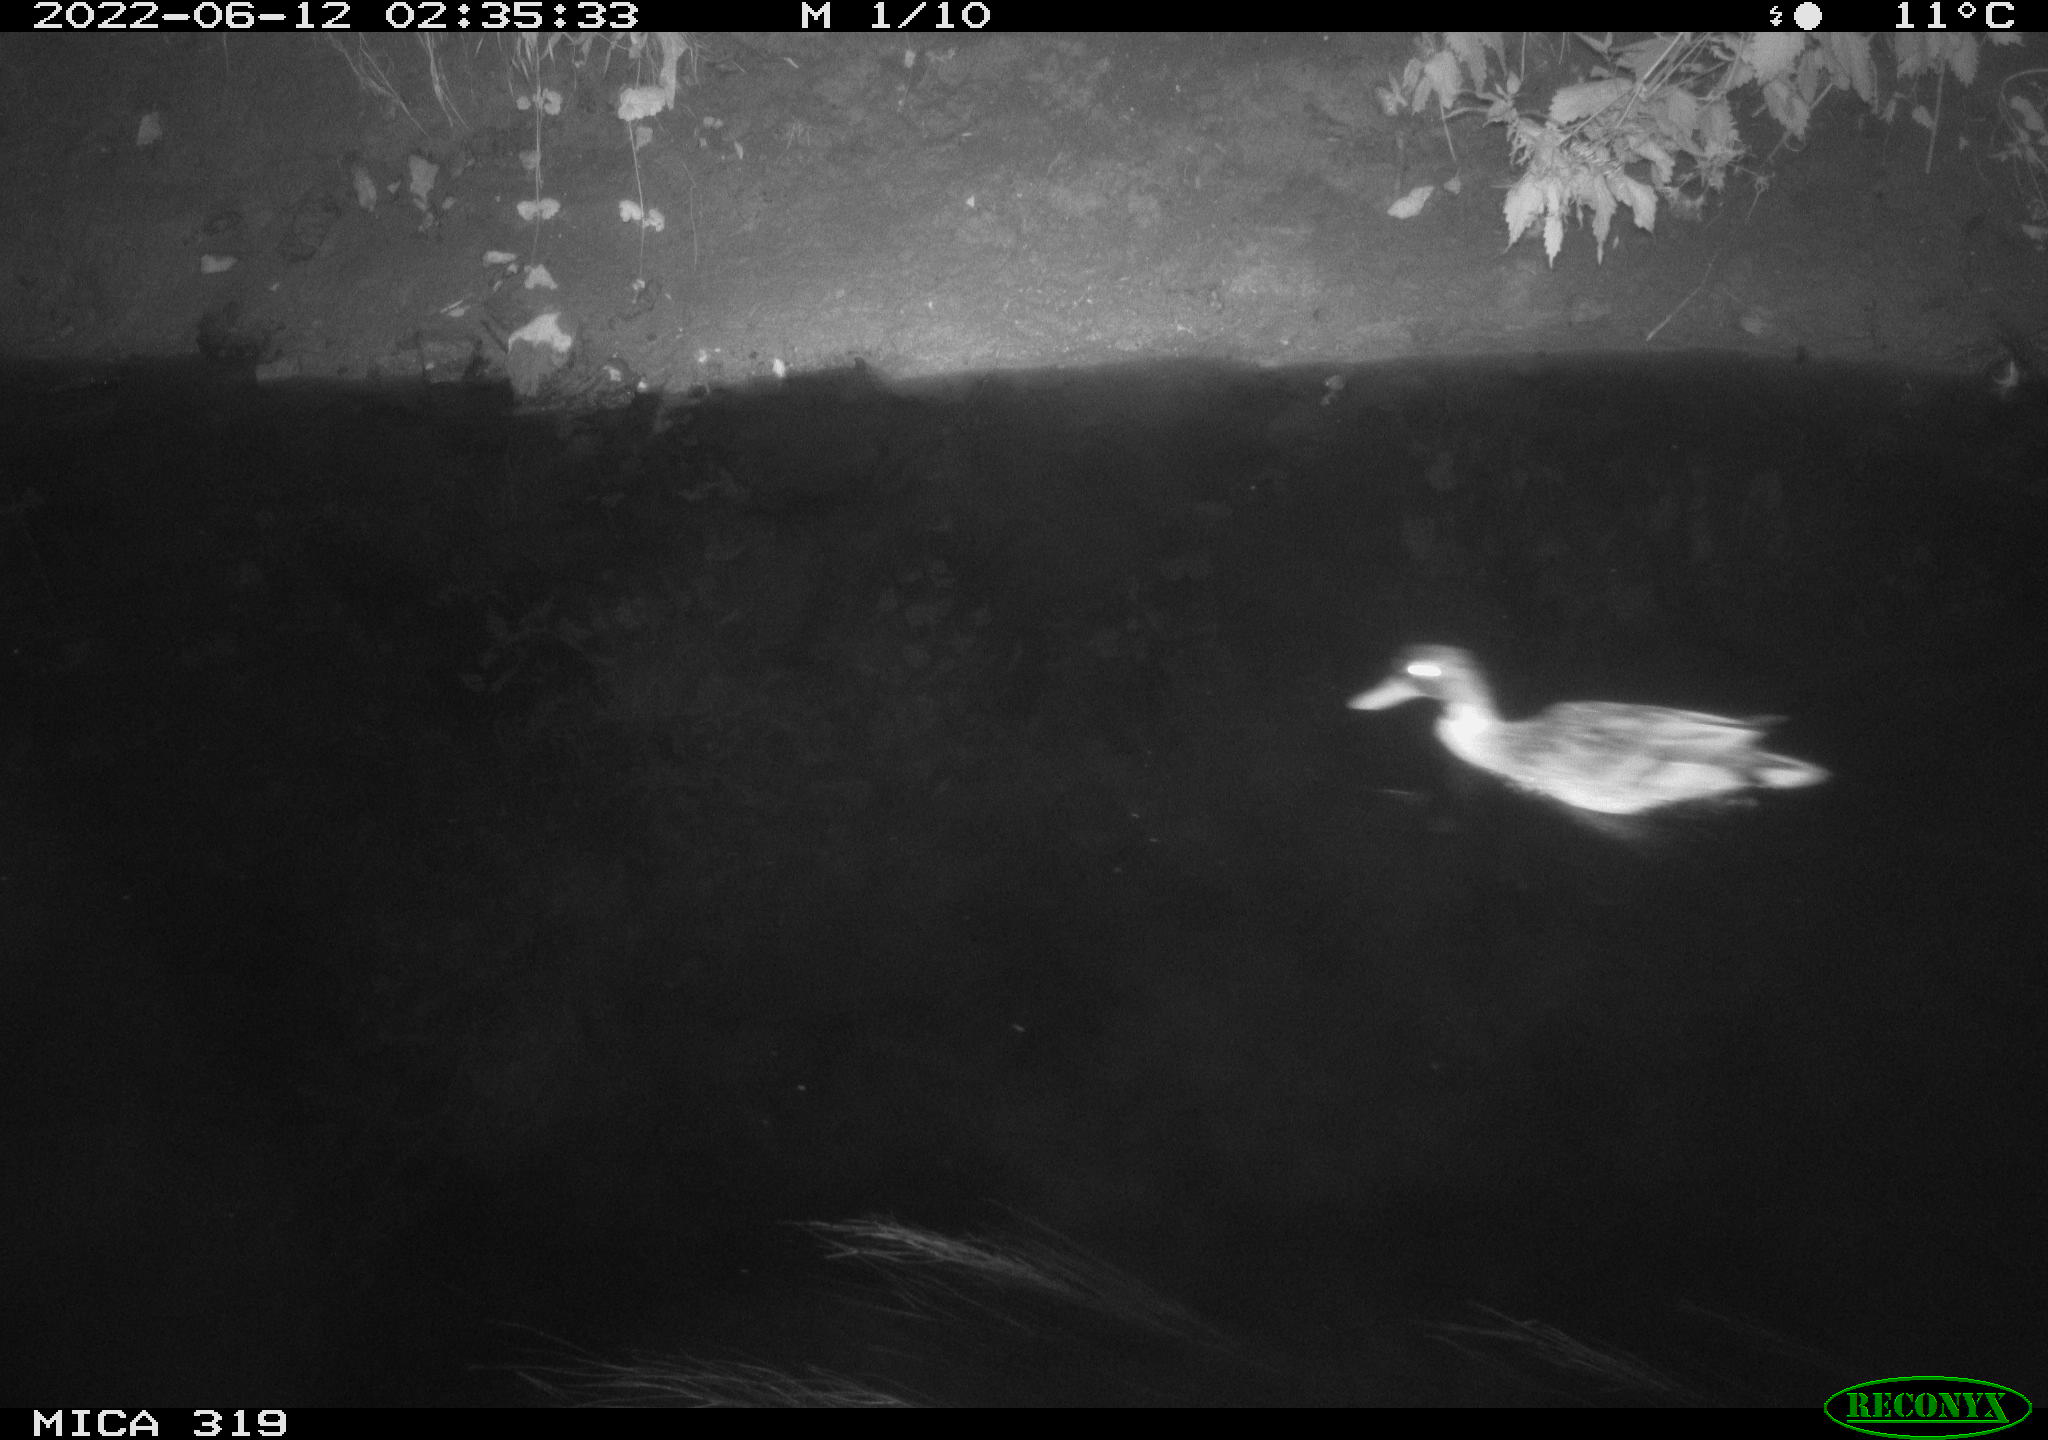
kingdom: Animalia
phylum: Chordata
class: Aves
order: Anseriformes
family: Anatidae
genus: Anas
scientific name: Anas
